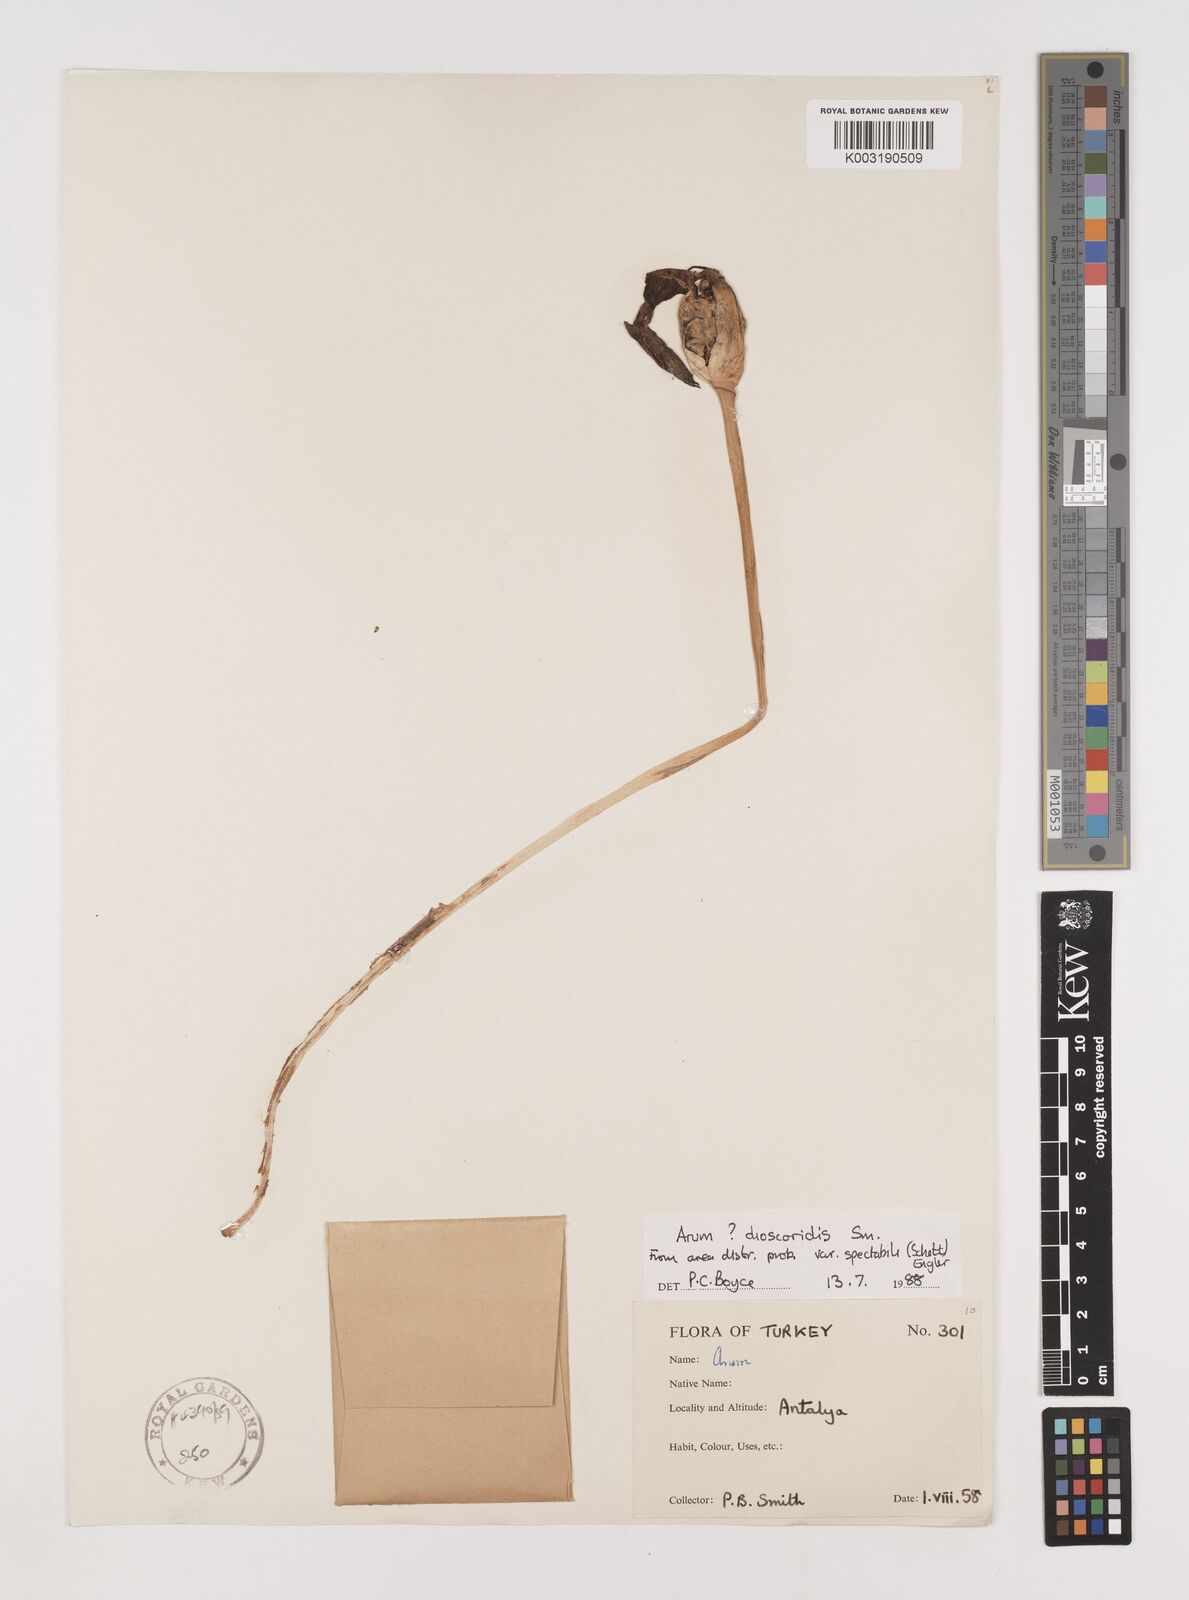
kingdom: Plantae
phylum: Tracheophyta
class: Liliopsida
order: Alismatales
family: Araceae
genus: Arum
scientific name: Arum dioscoridis
